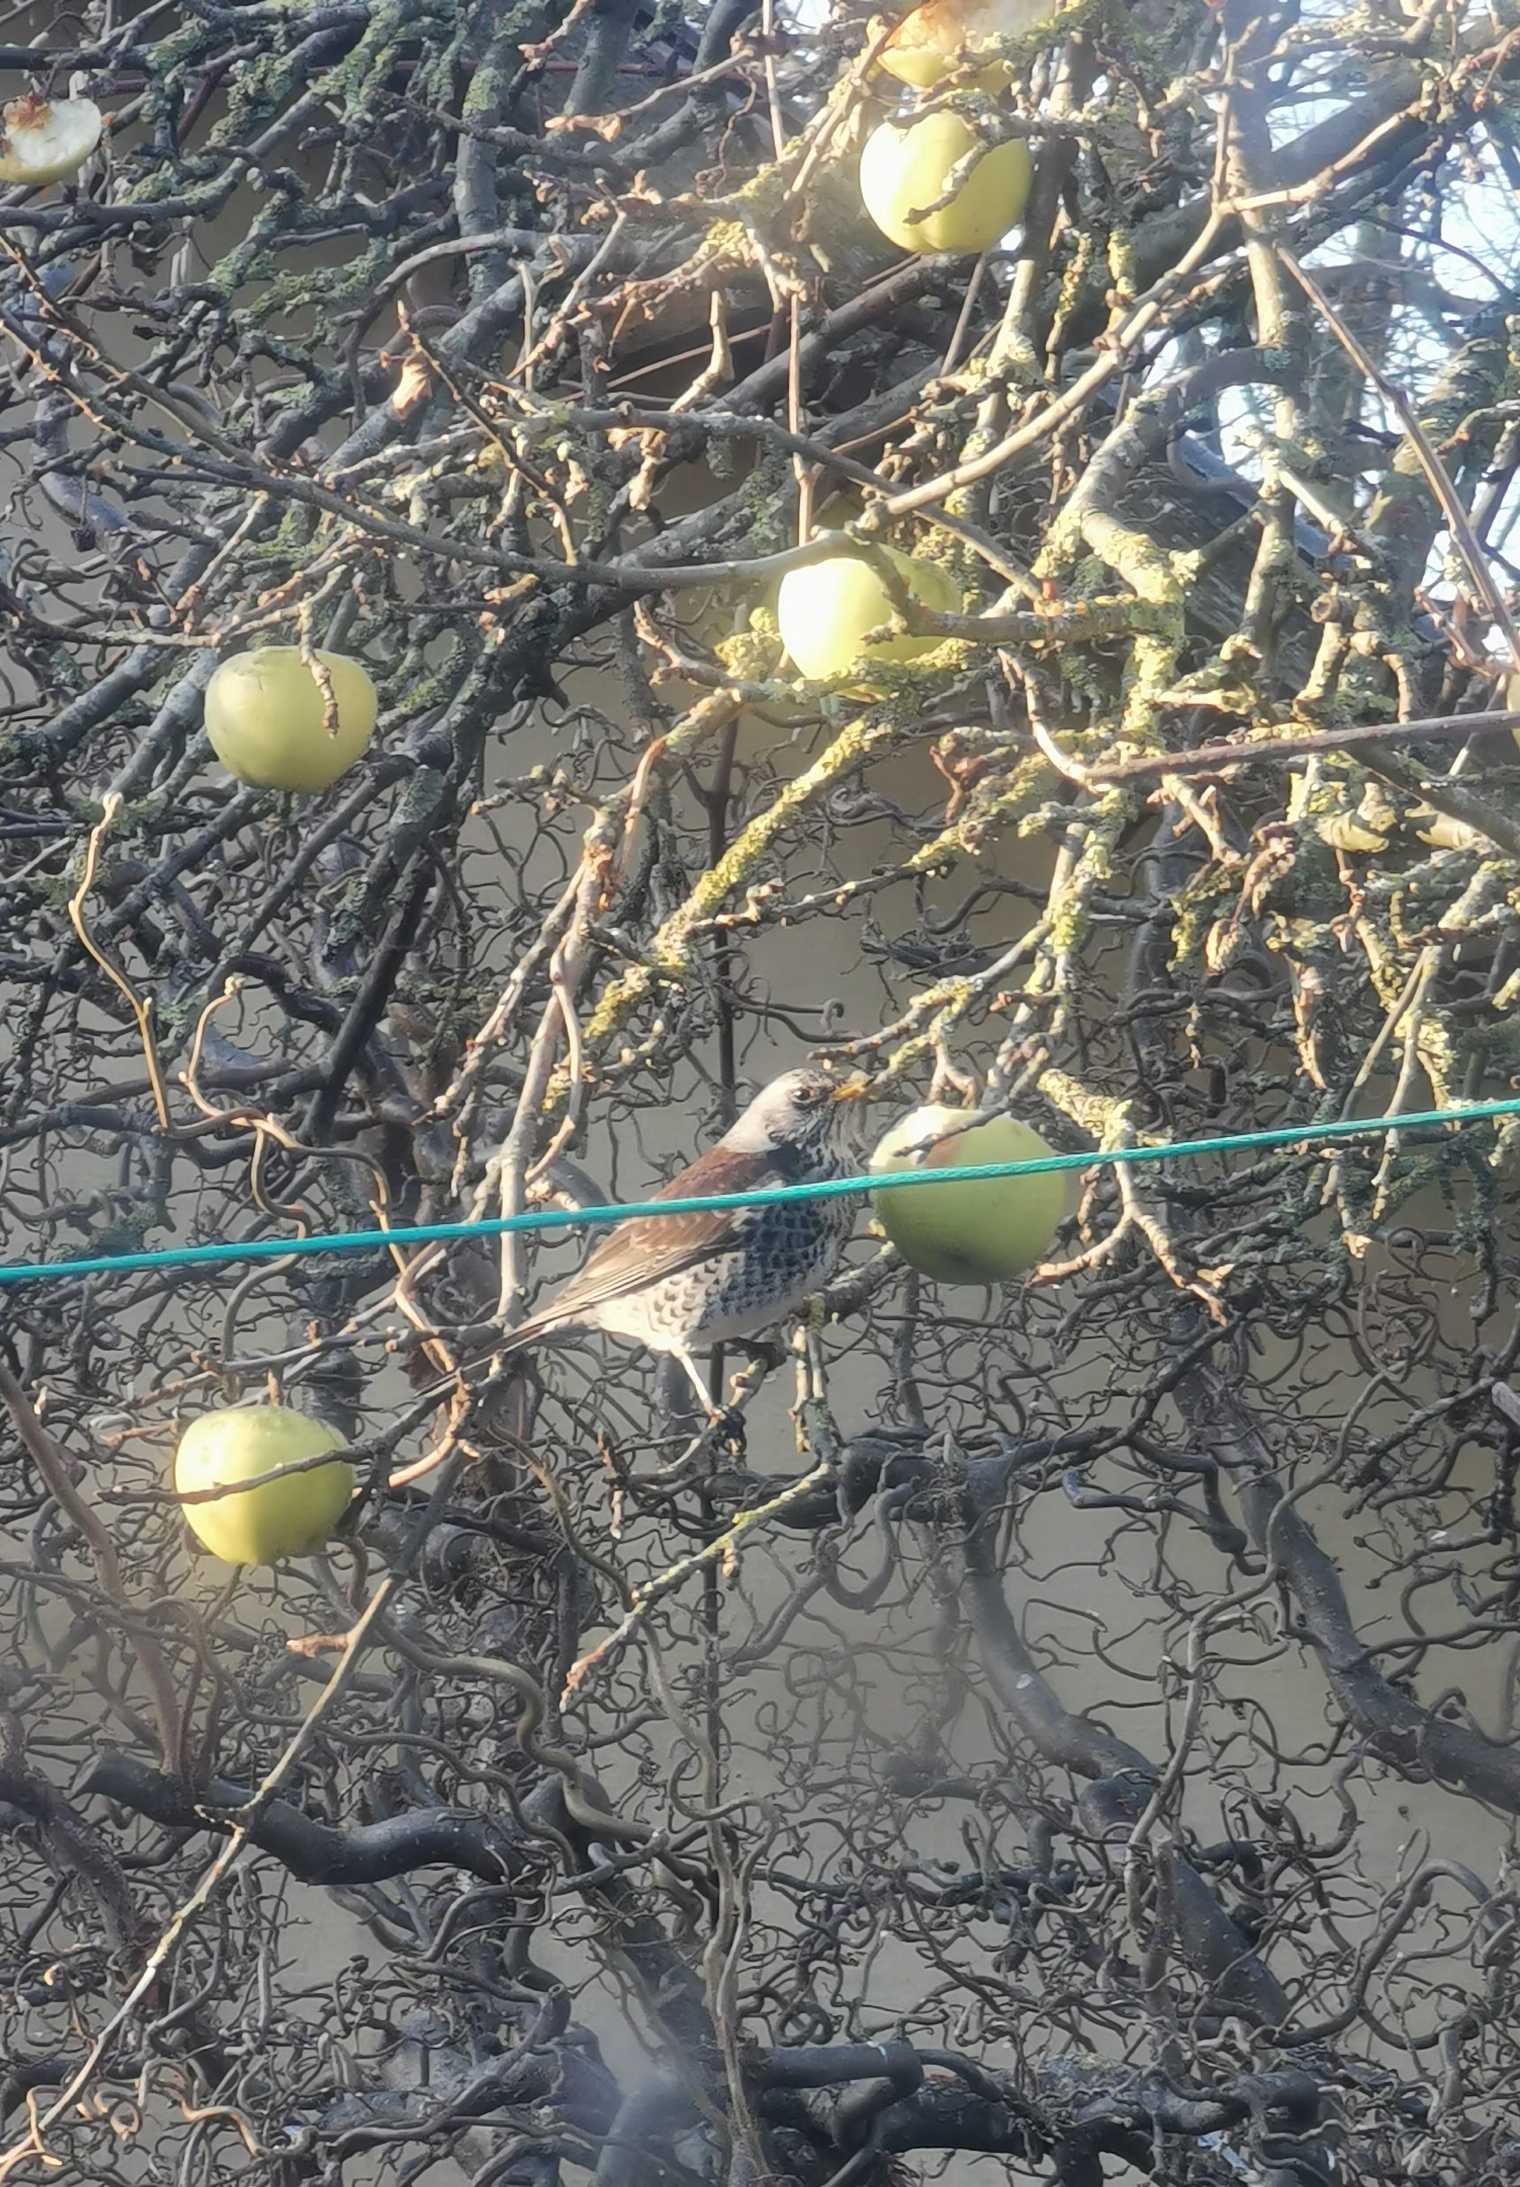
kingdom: Animalia
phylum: Chordata
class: Aves
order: Passeriformes
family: Turdidae
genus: Turdus
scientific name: Turdus pilaris
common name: Sjagger
